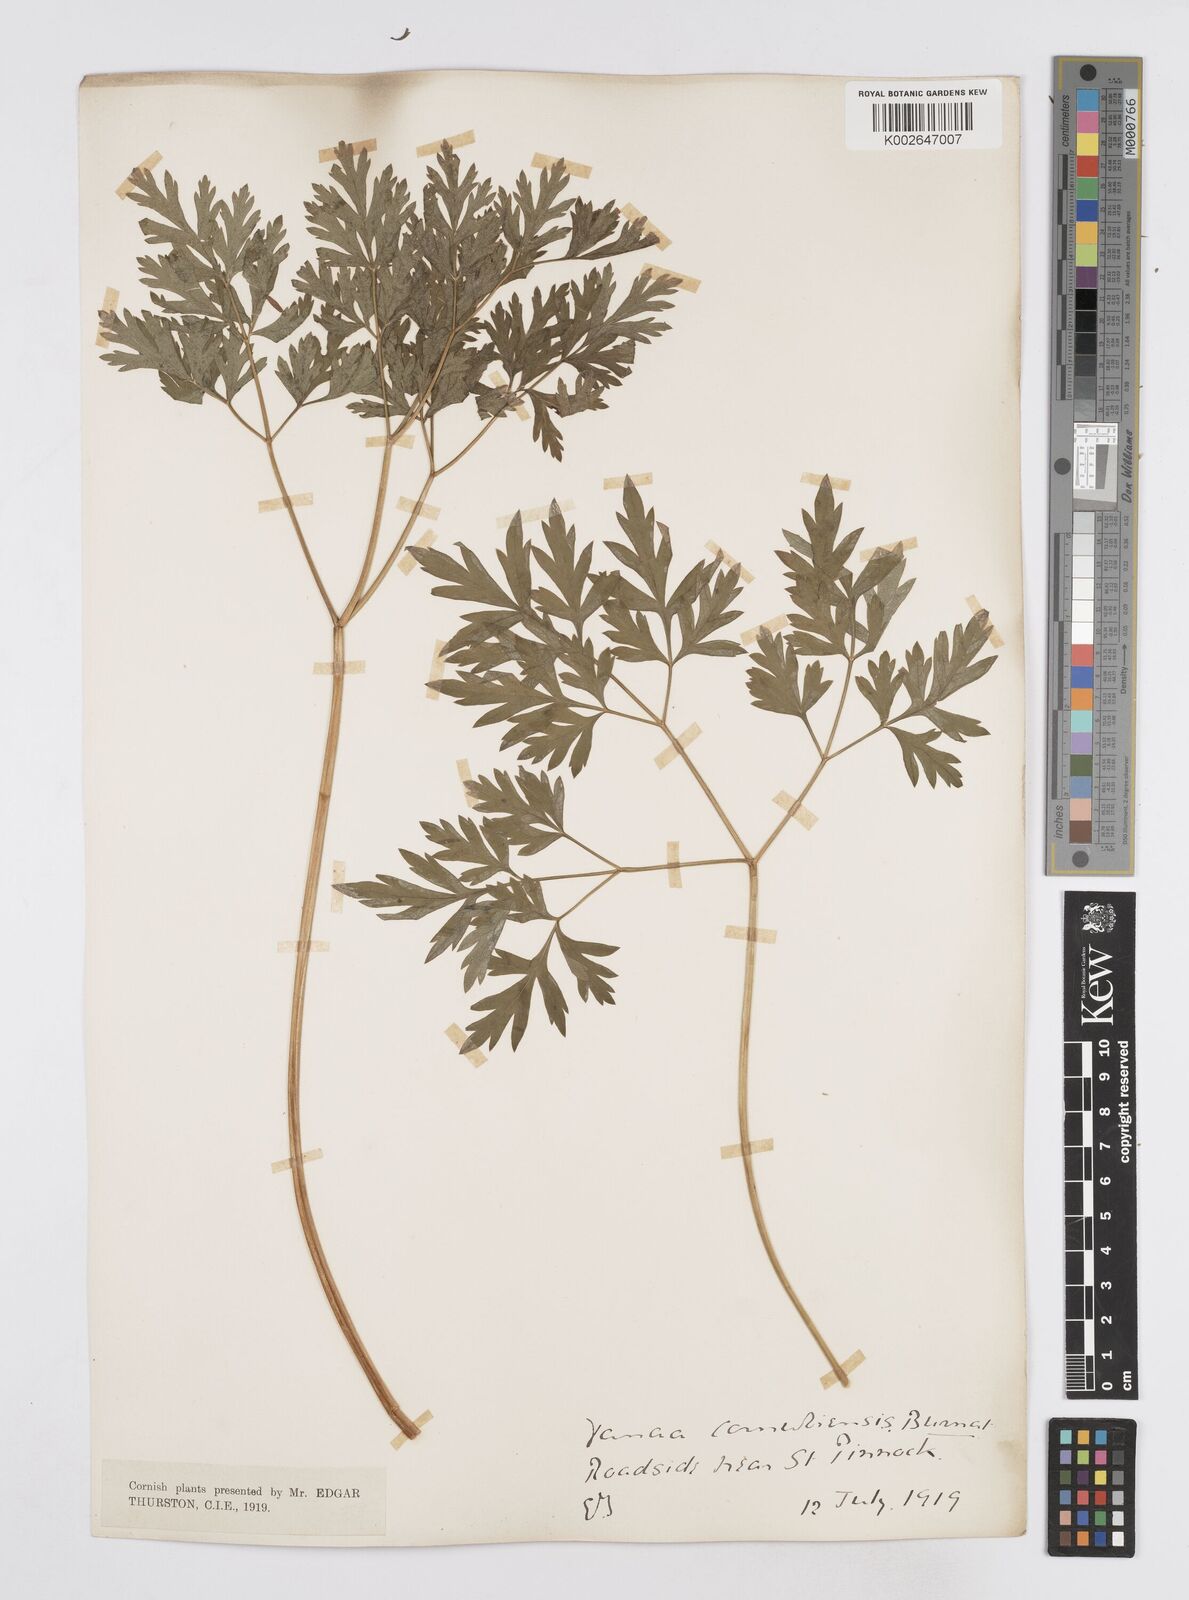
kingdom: Plantae
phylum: Tracheophyta
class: Magnoliopsida
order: Apiales
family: Apiaceae
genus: Physospermum
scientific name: Physospermum cornubiense
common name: Bladderseed
